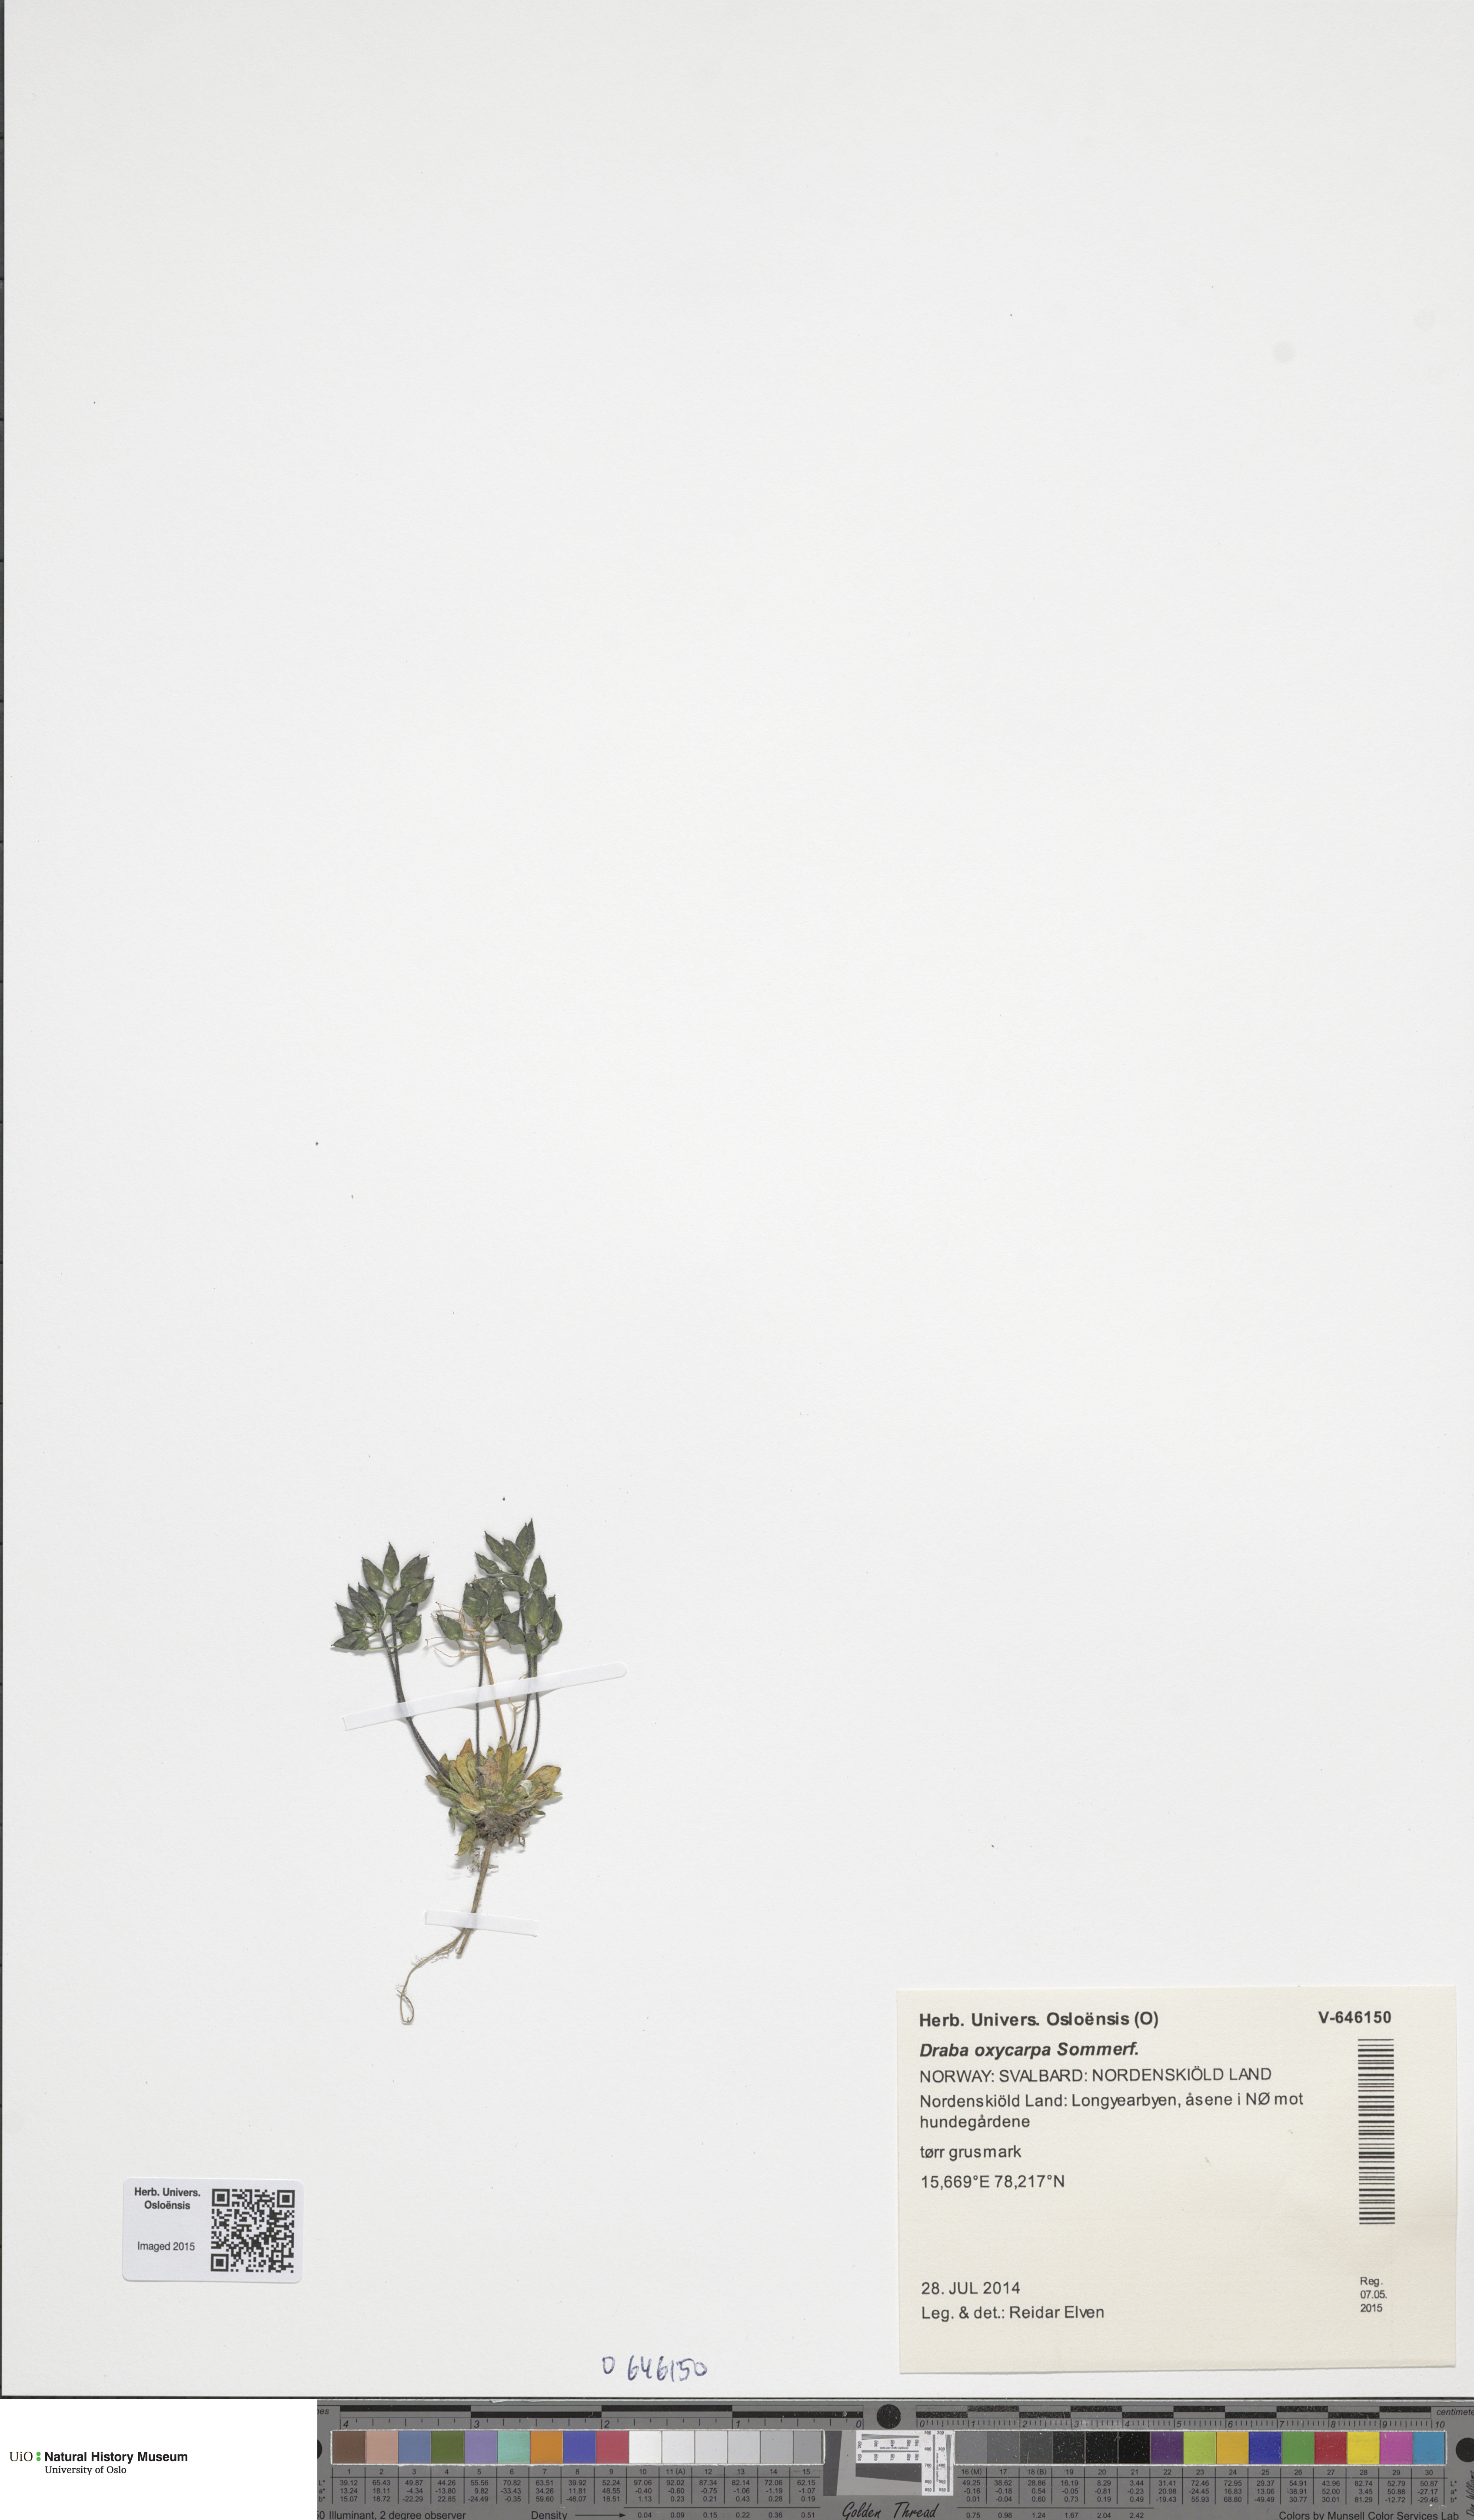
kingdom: Plantae
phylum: Tracheophyta
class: Magnoliopsida
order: Brassicales
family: Brassicaceae
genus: Draba
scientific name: Draba oxycarpa
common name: Sharp-fruited whitlow-grass
